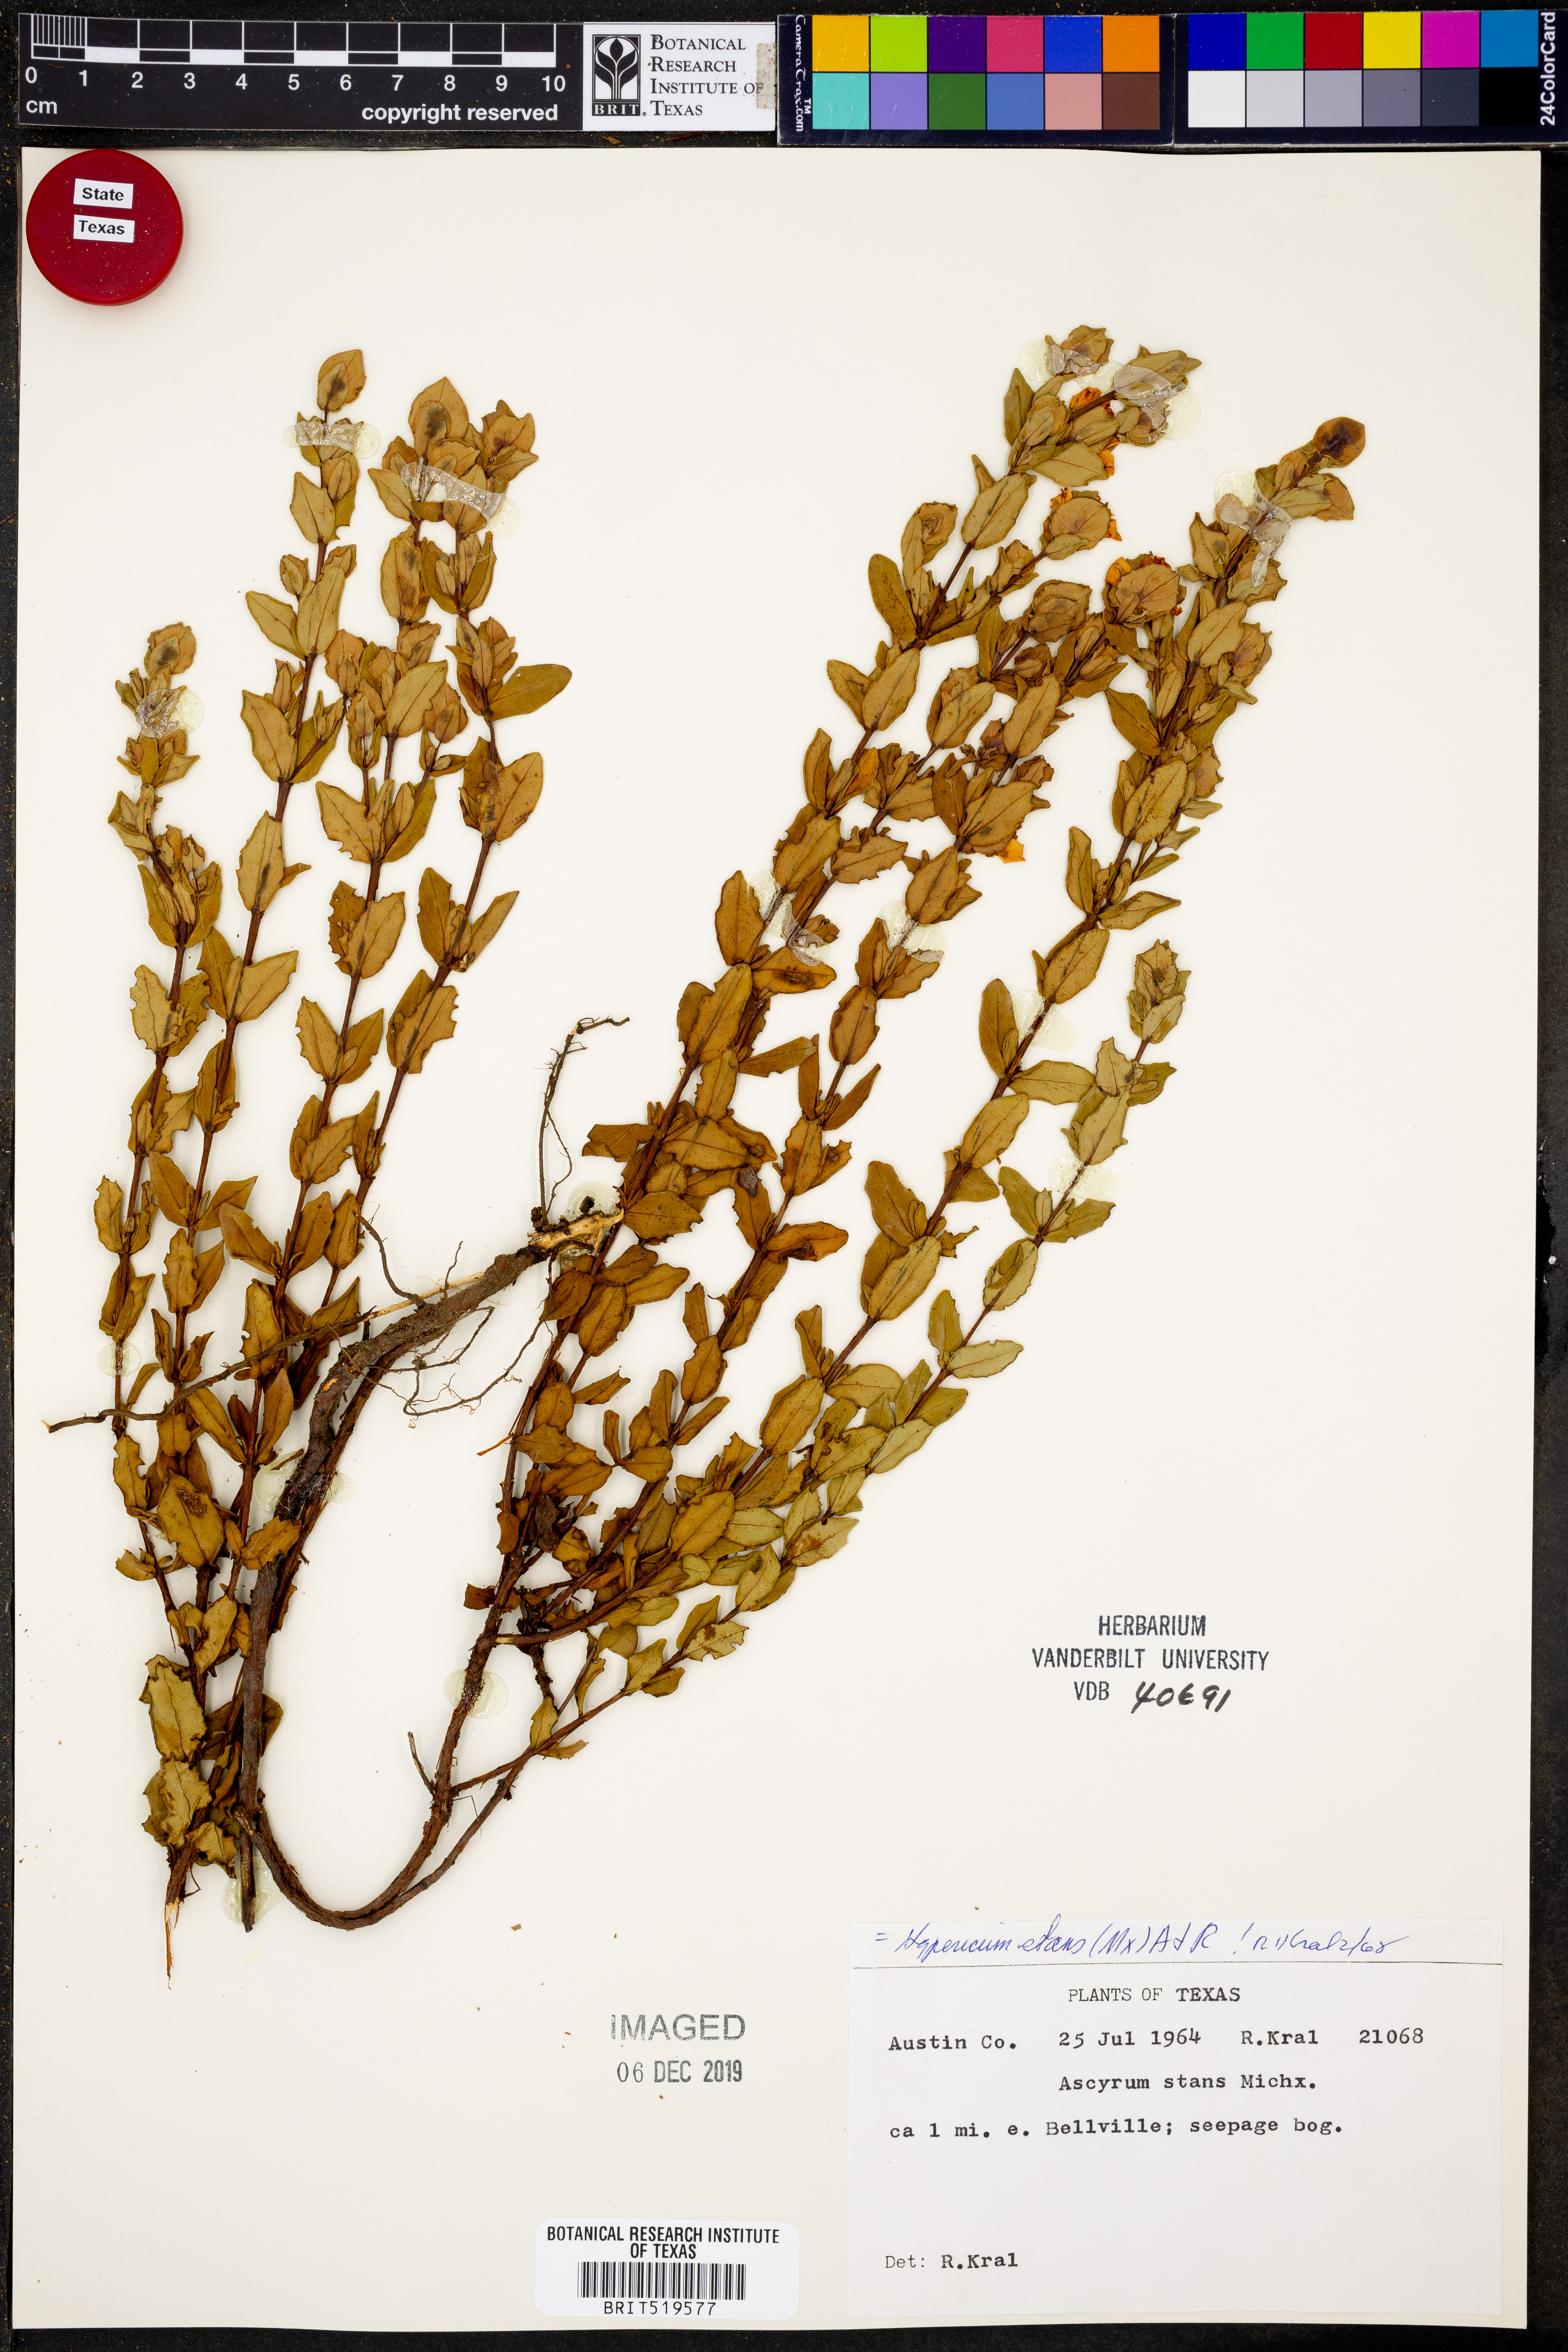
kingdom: Plantae
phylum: Tracheophyta
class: Magnoliopsida
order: Malpighiales
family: Hypericaceae
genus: Hypericum
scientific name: Hypericum crux-andreae
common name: St.-peter's-wort
